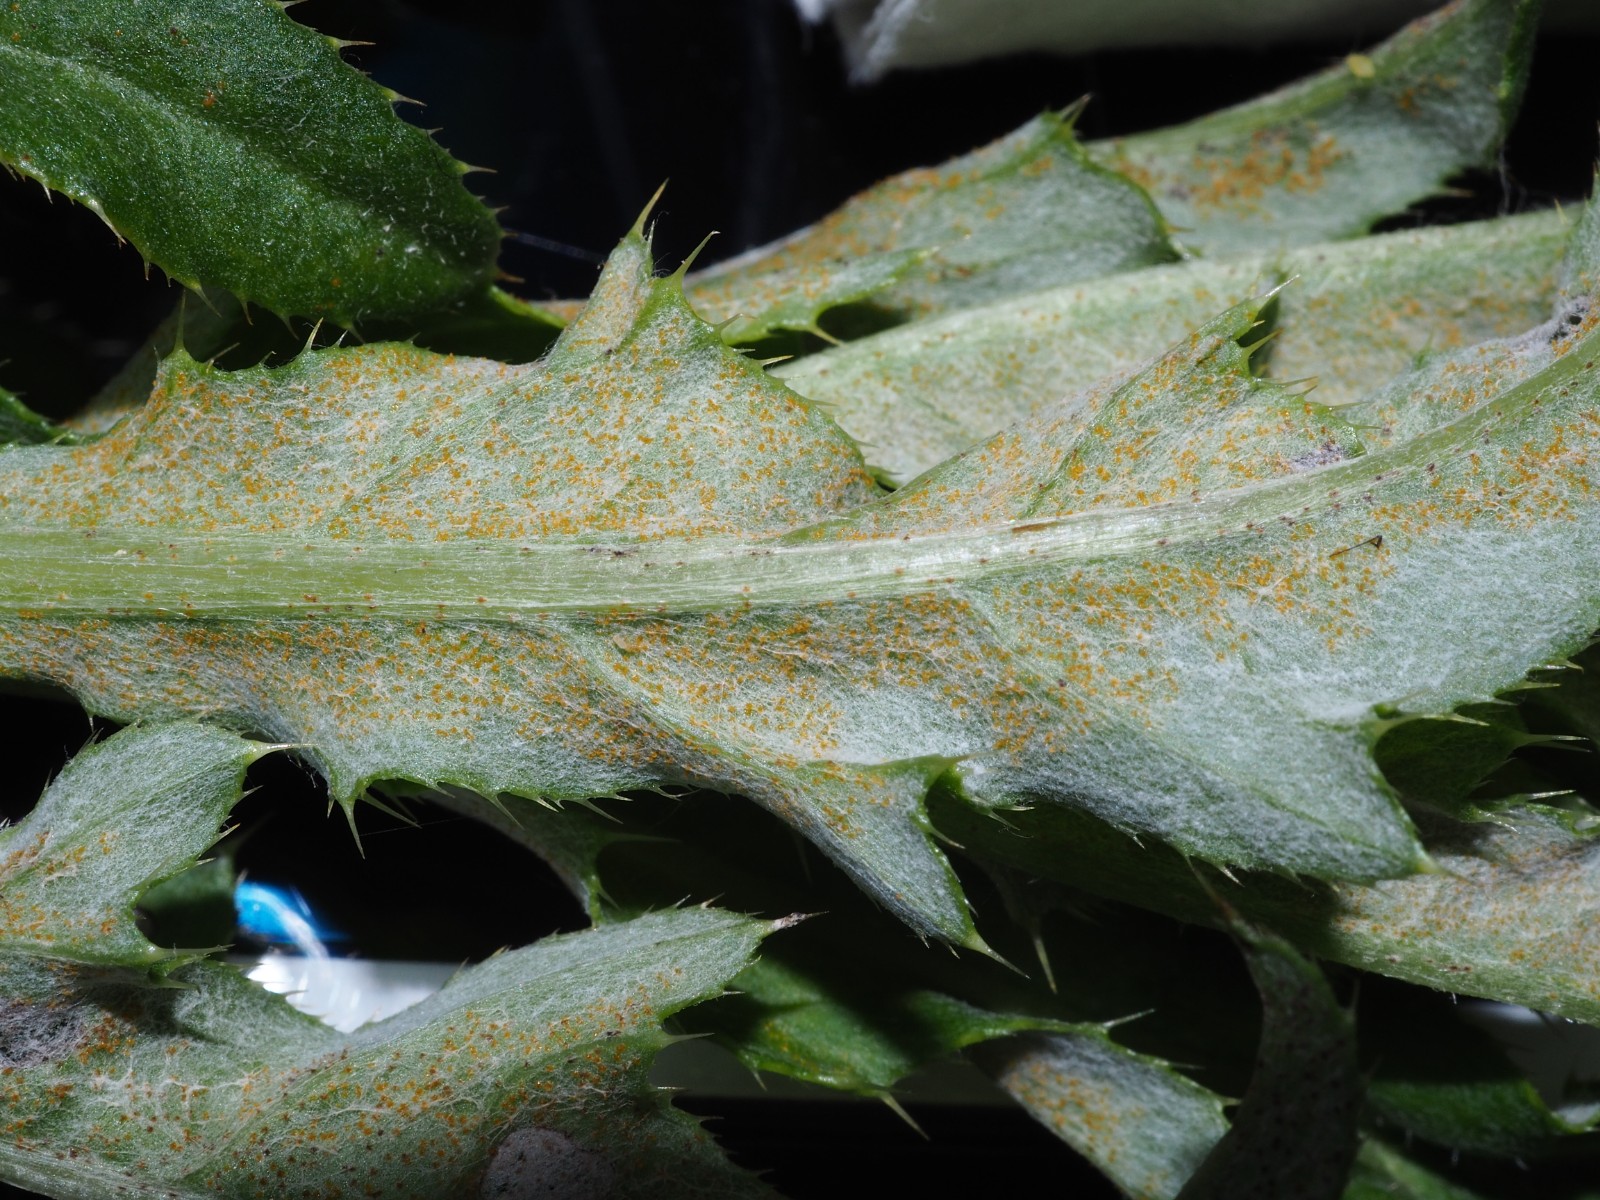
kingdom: Fungi
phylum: Basidiomycota
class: Pucciniomycetes
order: Pucciniales
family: Pucciniaceae
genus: Puccinia
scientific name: Puccinia suaveolens
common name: tidsel-tvecellerust
